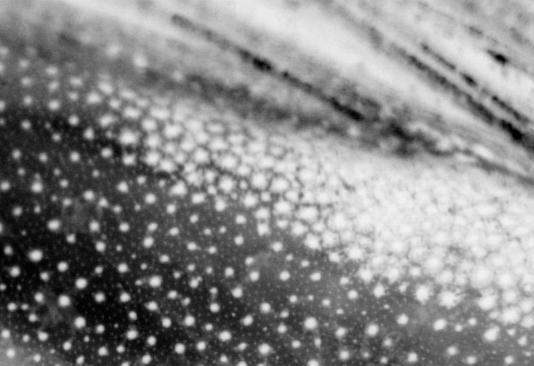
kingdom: Animalia
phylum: Chordata
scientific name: Chordata
